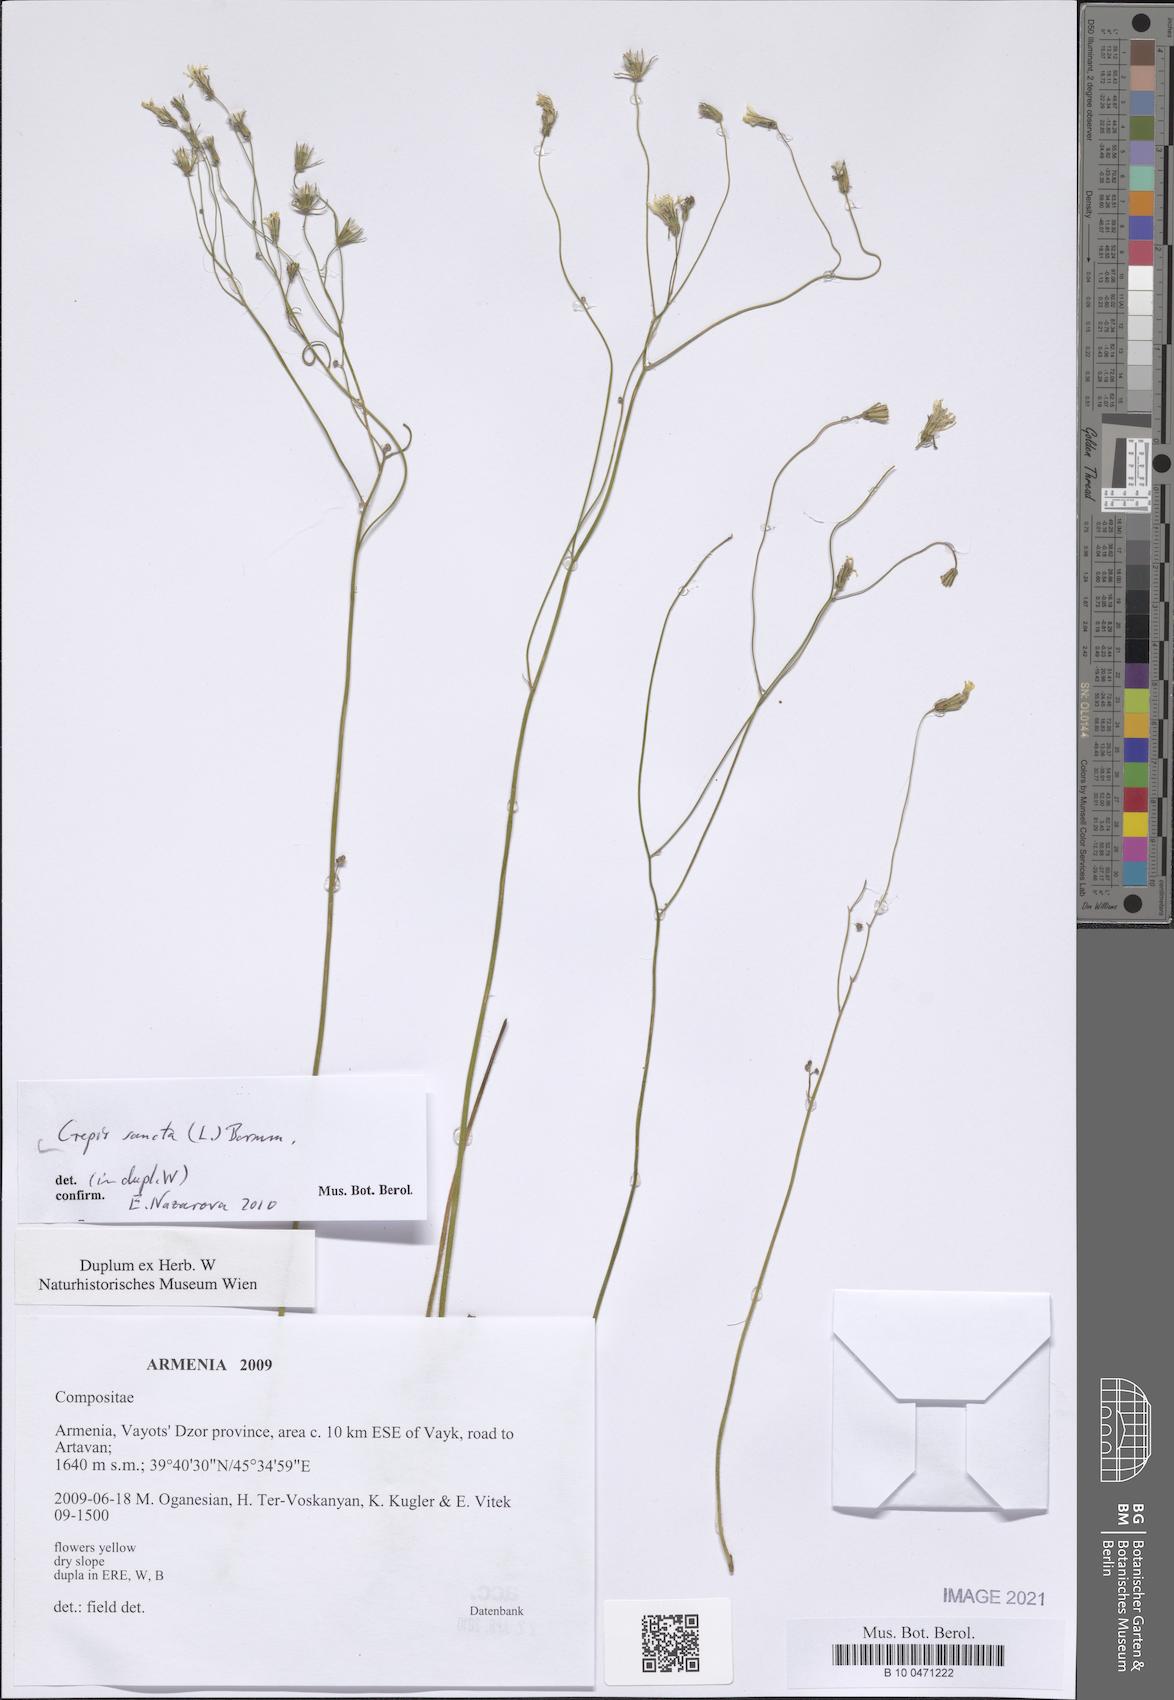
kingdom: Plantae
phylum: Tracheophyta
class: Magnoliopsida
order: Asterales
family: Asteraceae
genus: Crepis
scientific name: Crepis sancta
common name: Hawk's-beard
